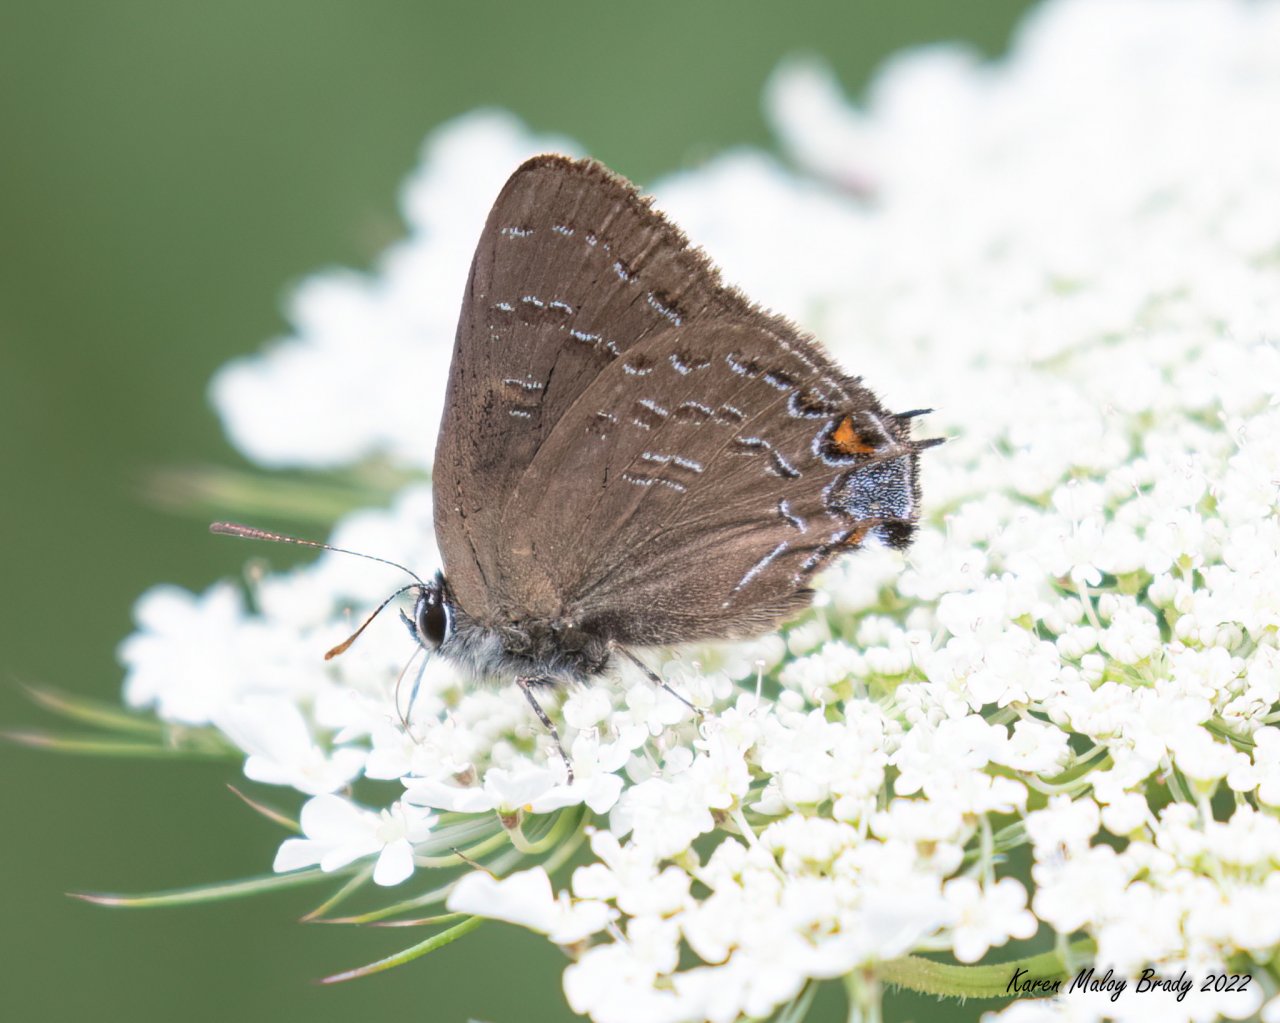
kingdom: Animalia
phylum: Arthropoda
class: Insecta
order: Lepidoptera
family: Lycaenidae
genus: Satyrium
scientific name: Satyrium calanus
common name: Banded Hairstreak
